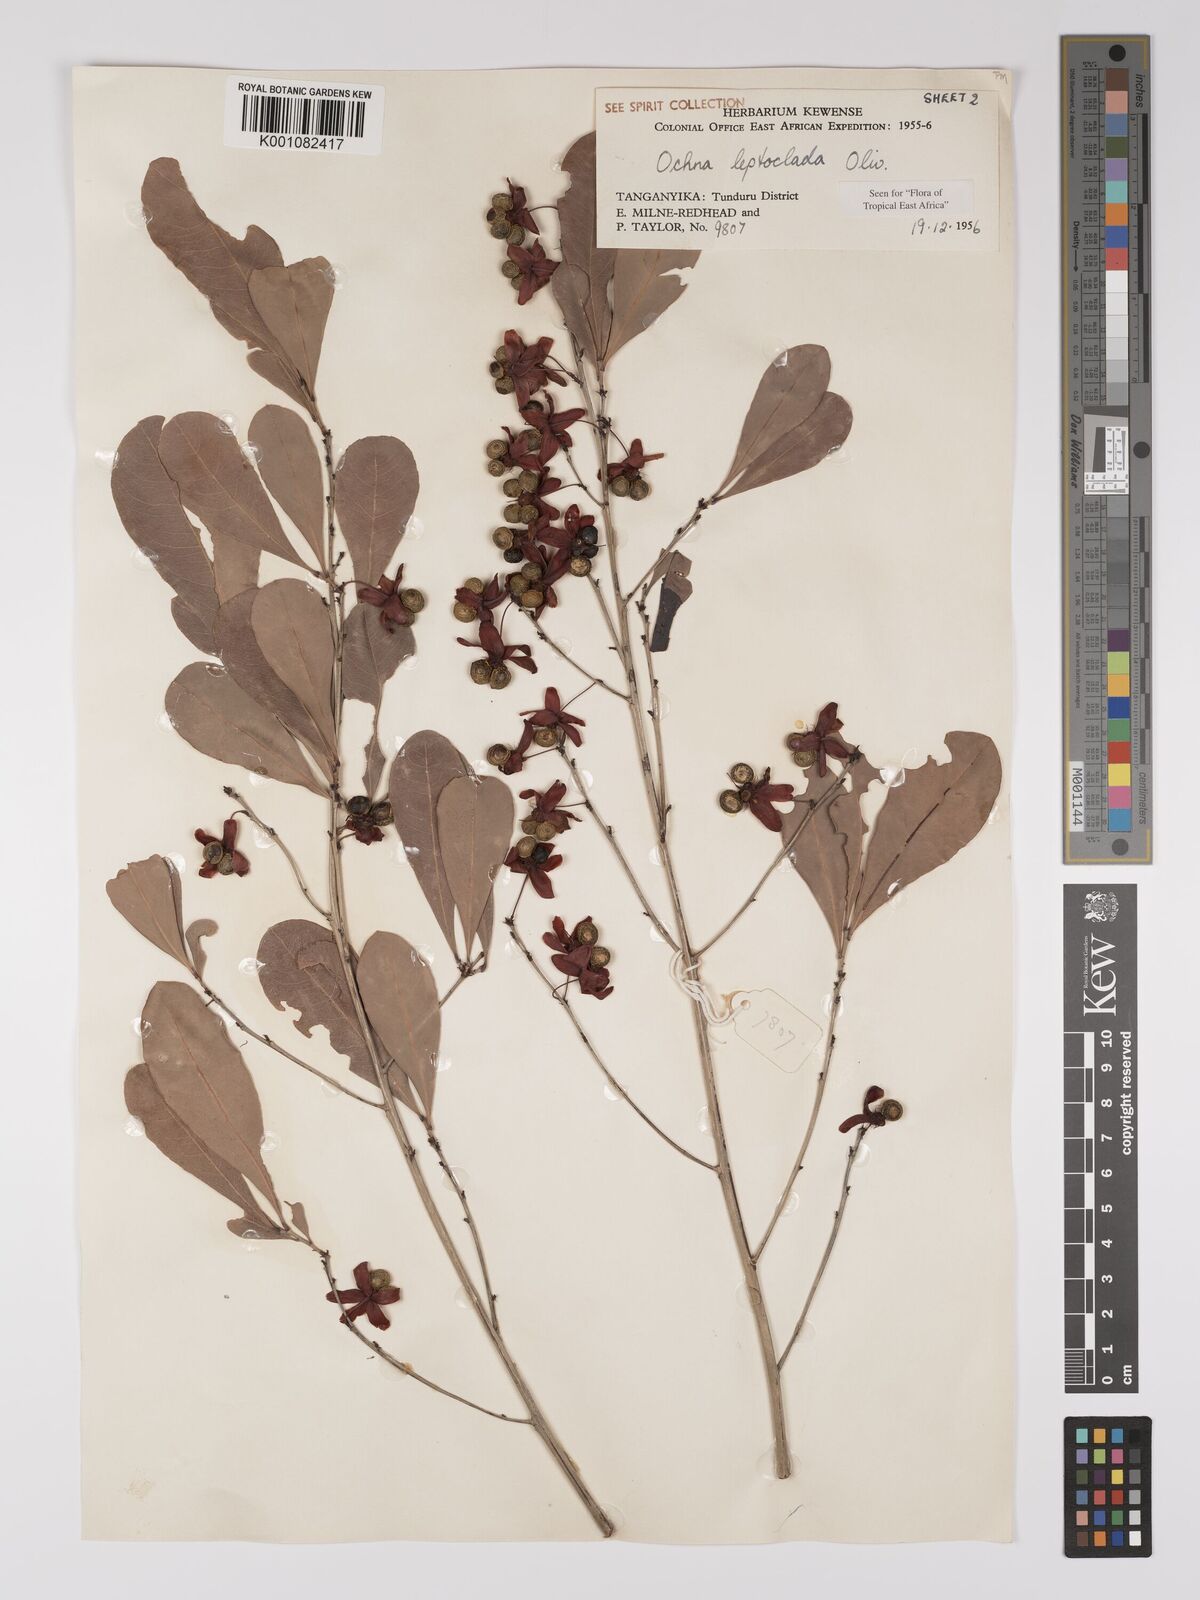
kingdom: Plantae
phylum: Tracheophyta
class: Magnoliopsida
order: Malpighiales
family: Ochnaceae
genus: Ochna
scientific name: Ochna leptoclada
